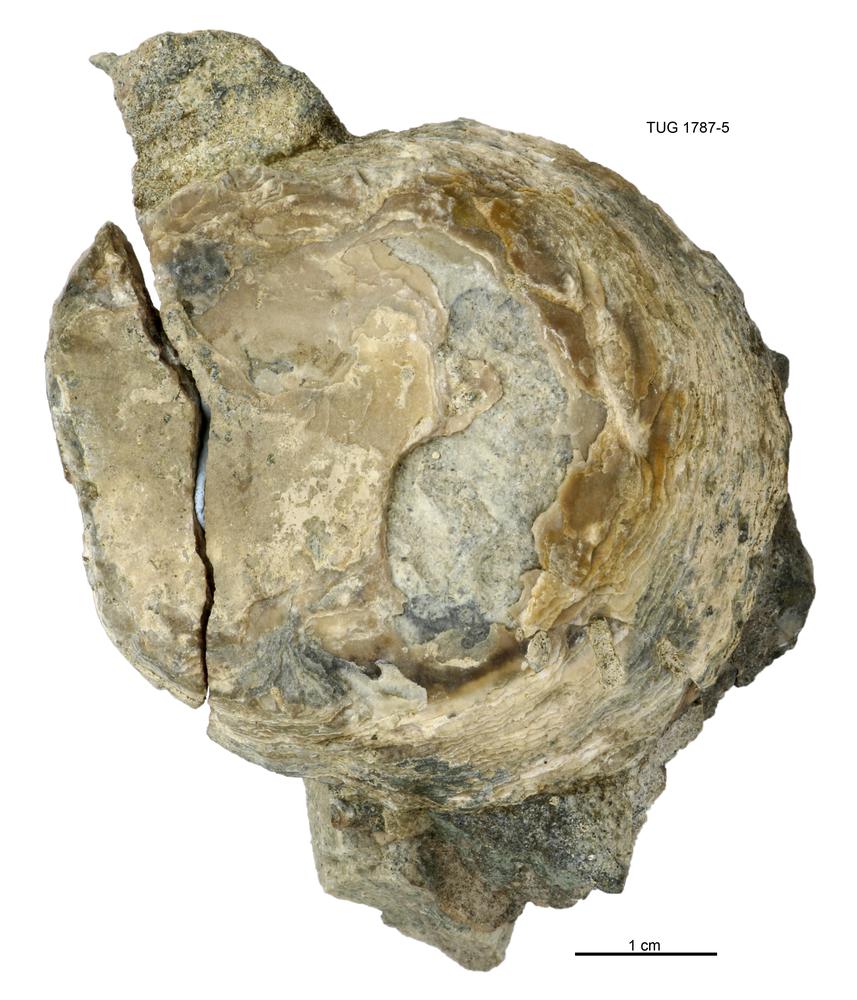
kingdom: Animalia
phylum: Mollusca
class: Monoplacophora
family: Metoptomatidae
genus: Metoptoma
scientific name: Metoptoma
